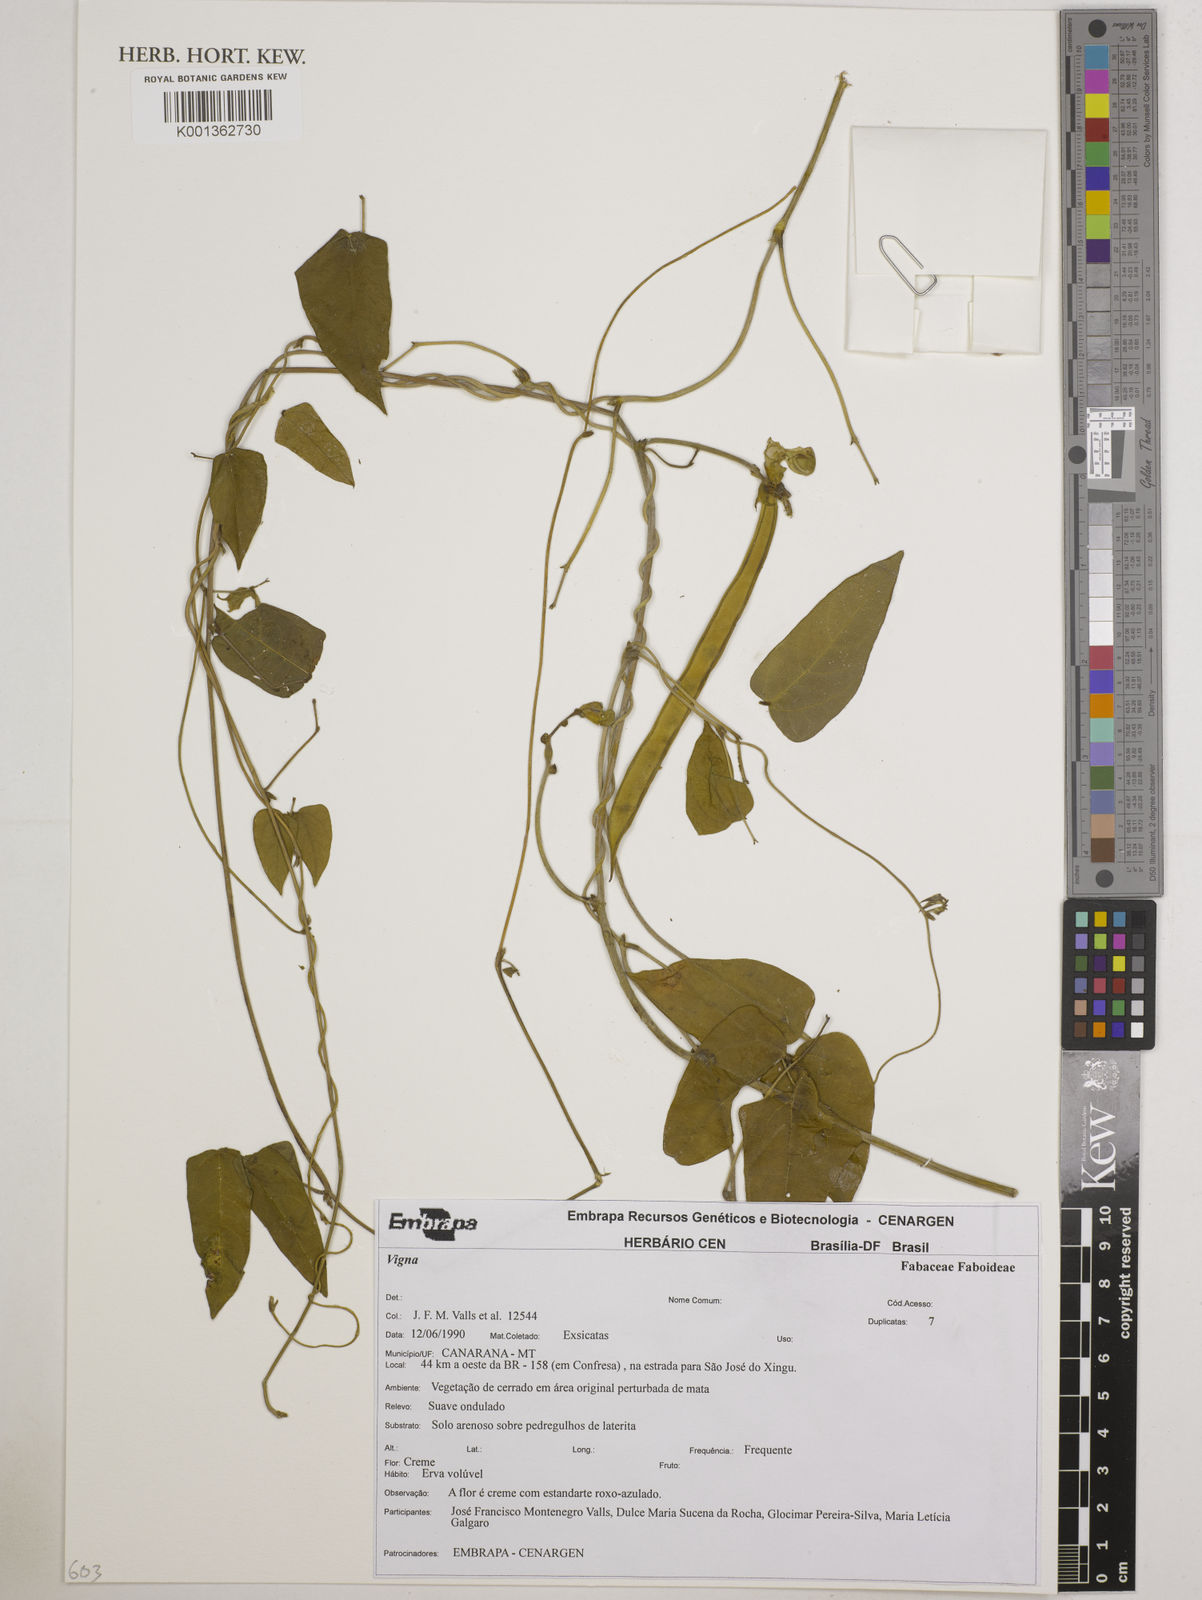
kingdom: Plantae
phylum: Tracheophyta
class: Magnoliopsida
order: Fabales
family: Fabaceae
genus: Vigna
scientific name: Vigna
